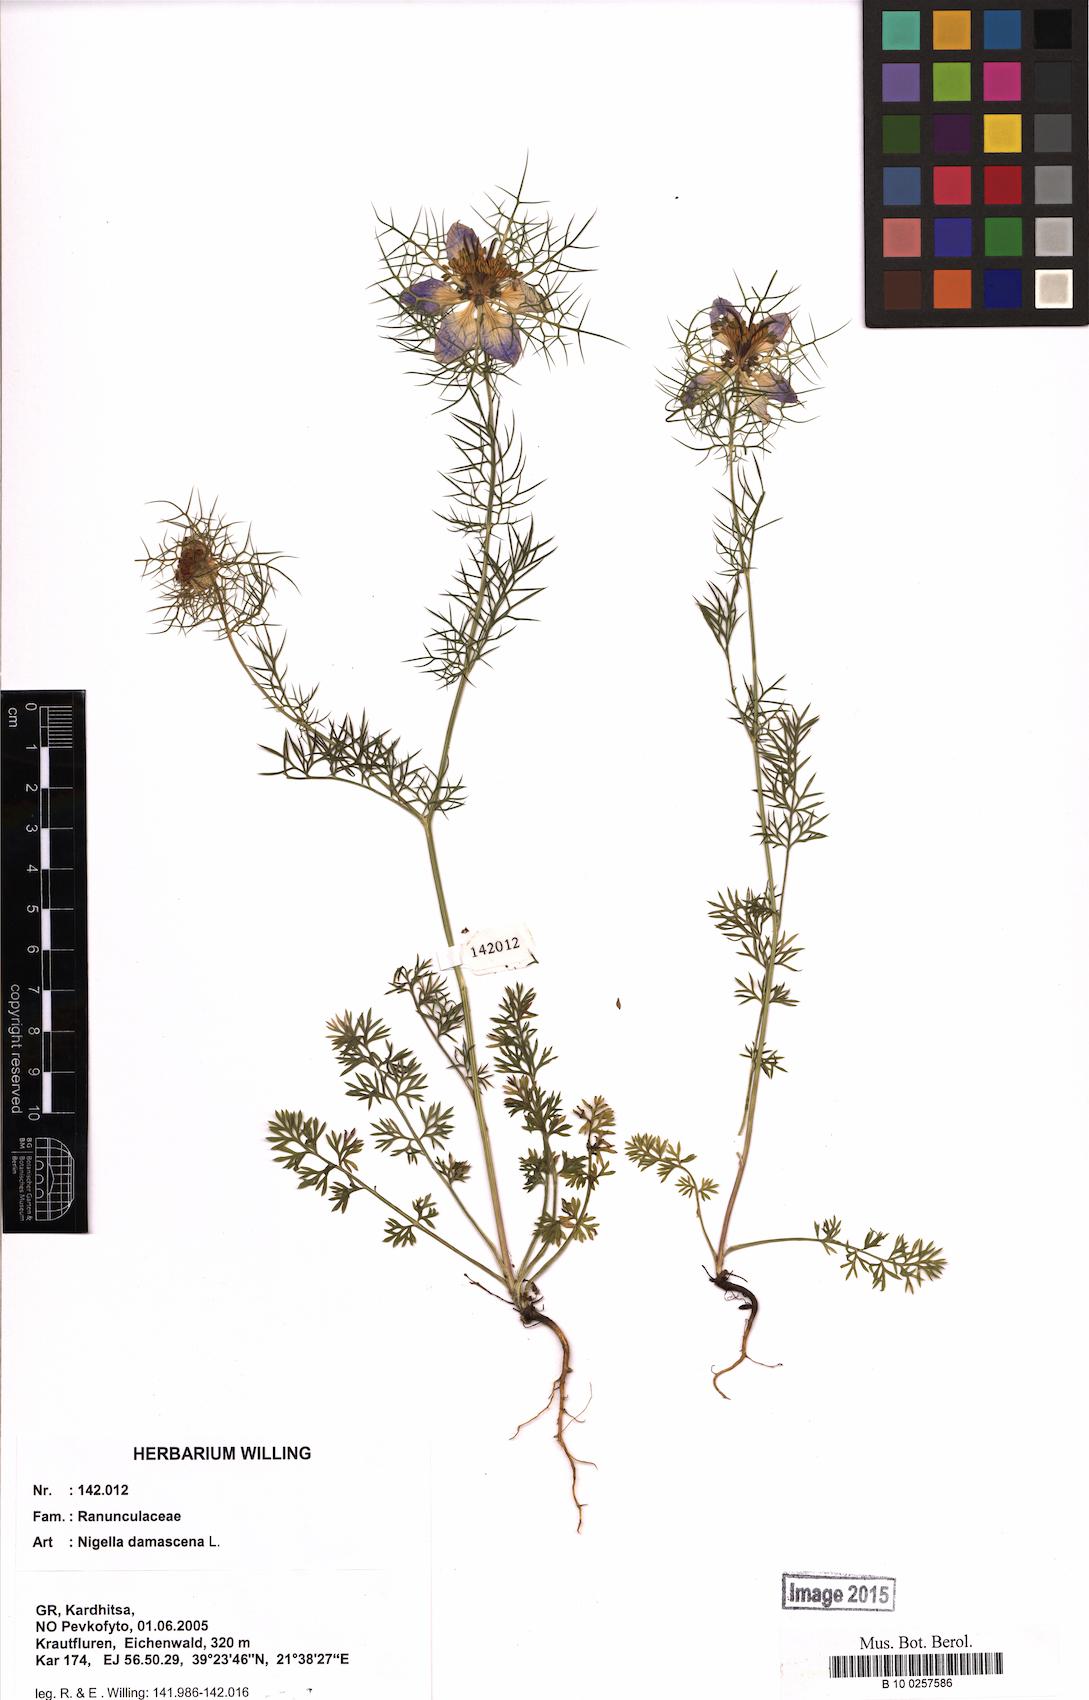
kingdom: Plantae
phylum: Tracheophyta
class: Magnoliopsida
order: Ranunculales
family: Ranunculaceae
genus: Nigella
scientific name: Nigella damascena
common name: Love-in-a-mist
